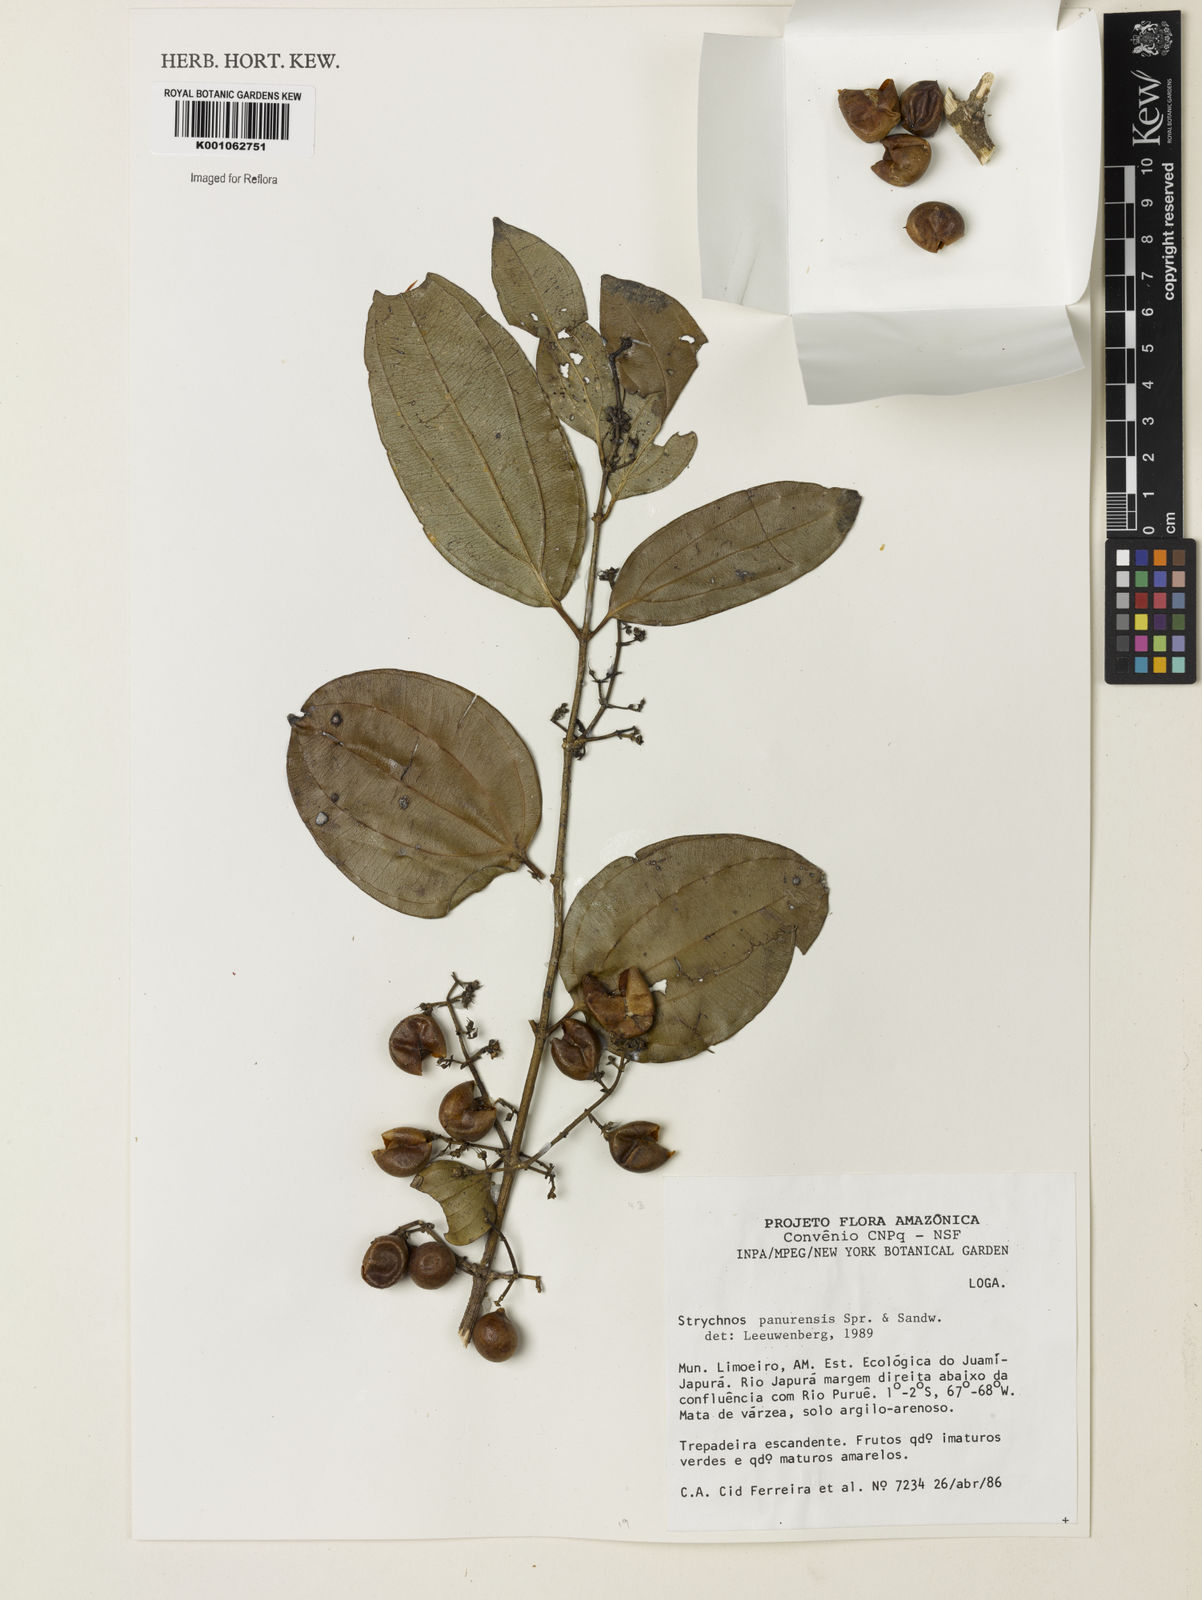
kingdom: Plantae
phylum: Tracheophyta
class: Magnoliopsida
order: Gentianales
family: Loganiaceae
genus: Strychnos
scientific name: Strychnos gubleri
